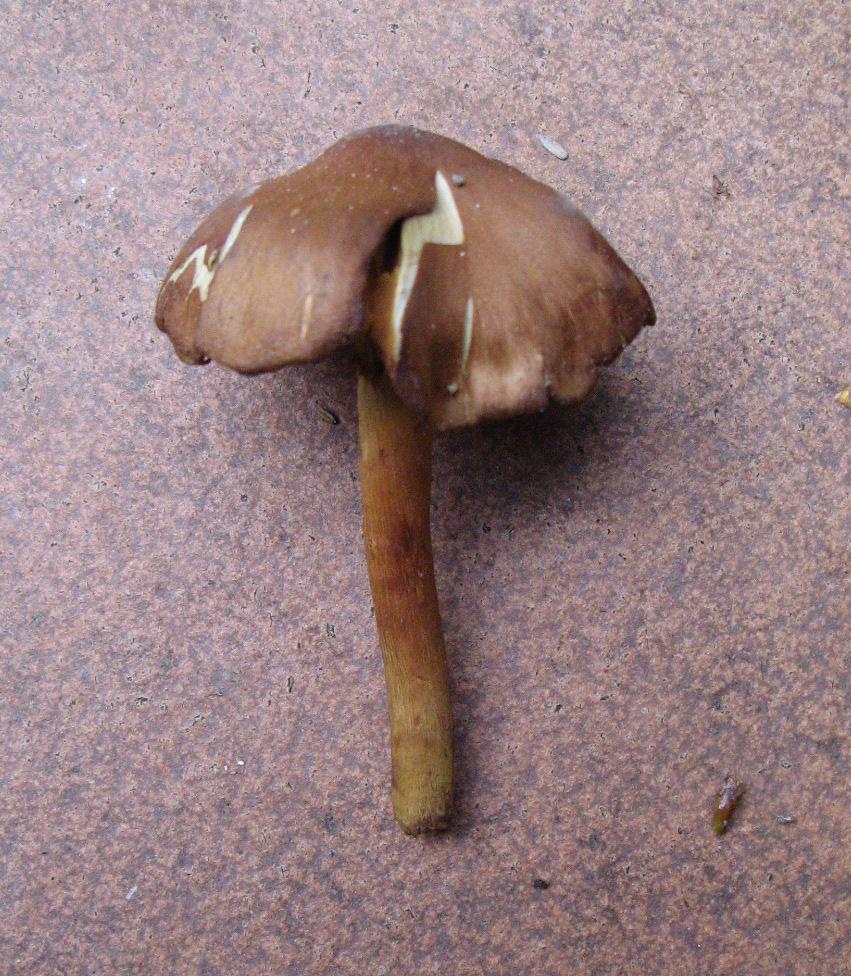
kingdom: Fungi
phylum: Basidiomycota
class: Agaricomycetes
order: Agaricales
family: Cortinariaceae
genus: Cortinarius
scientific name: Cortinarius
